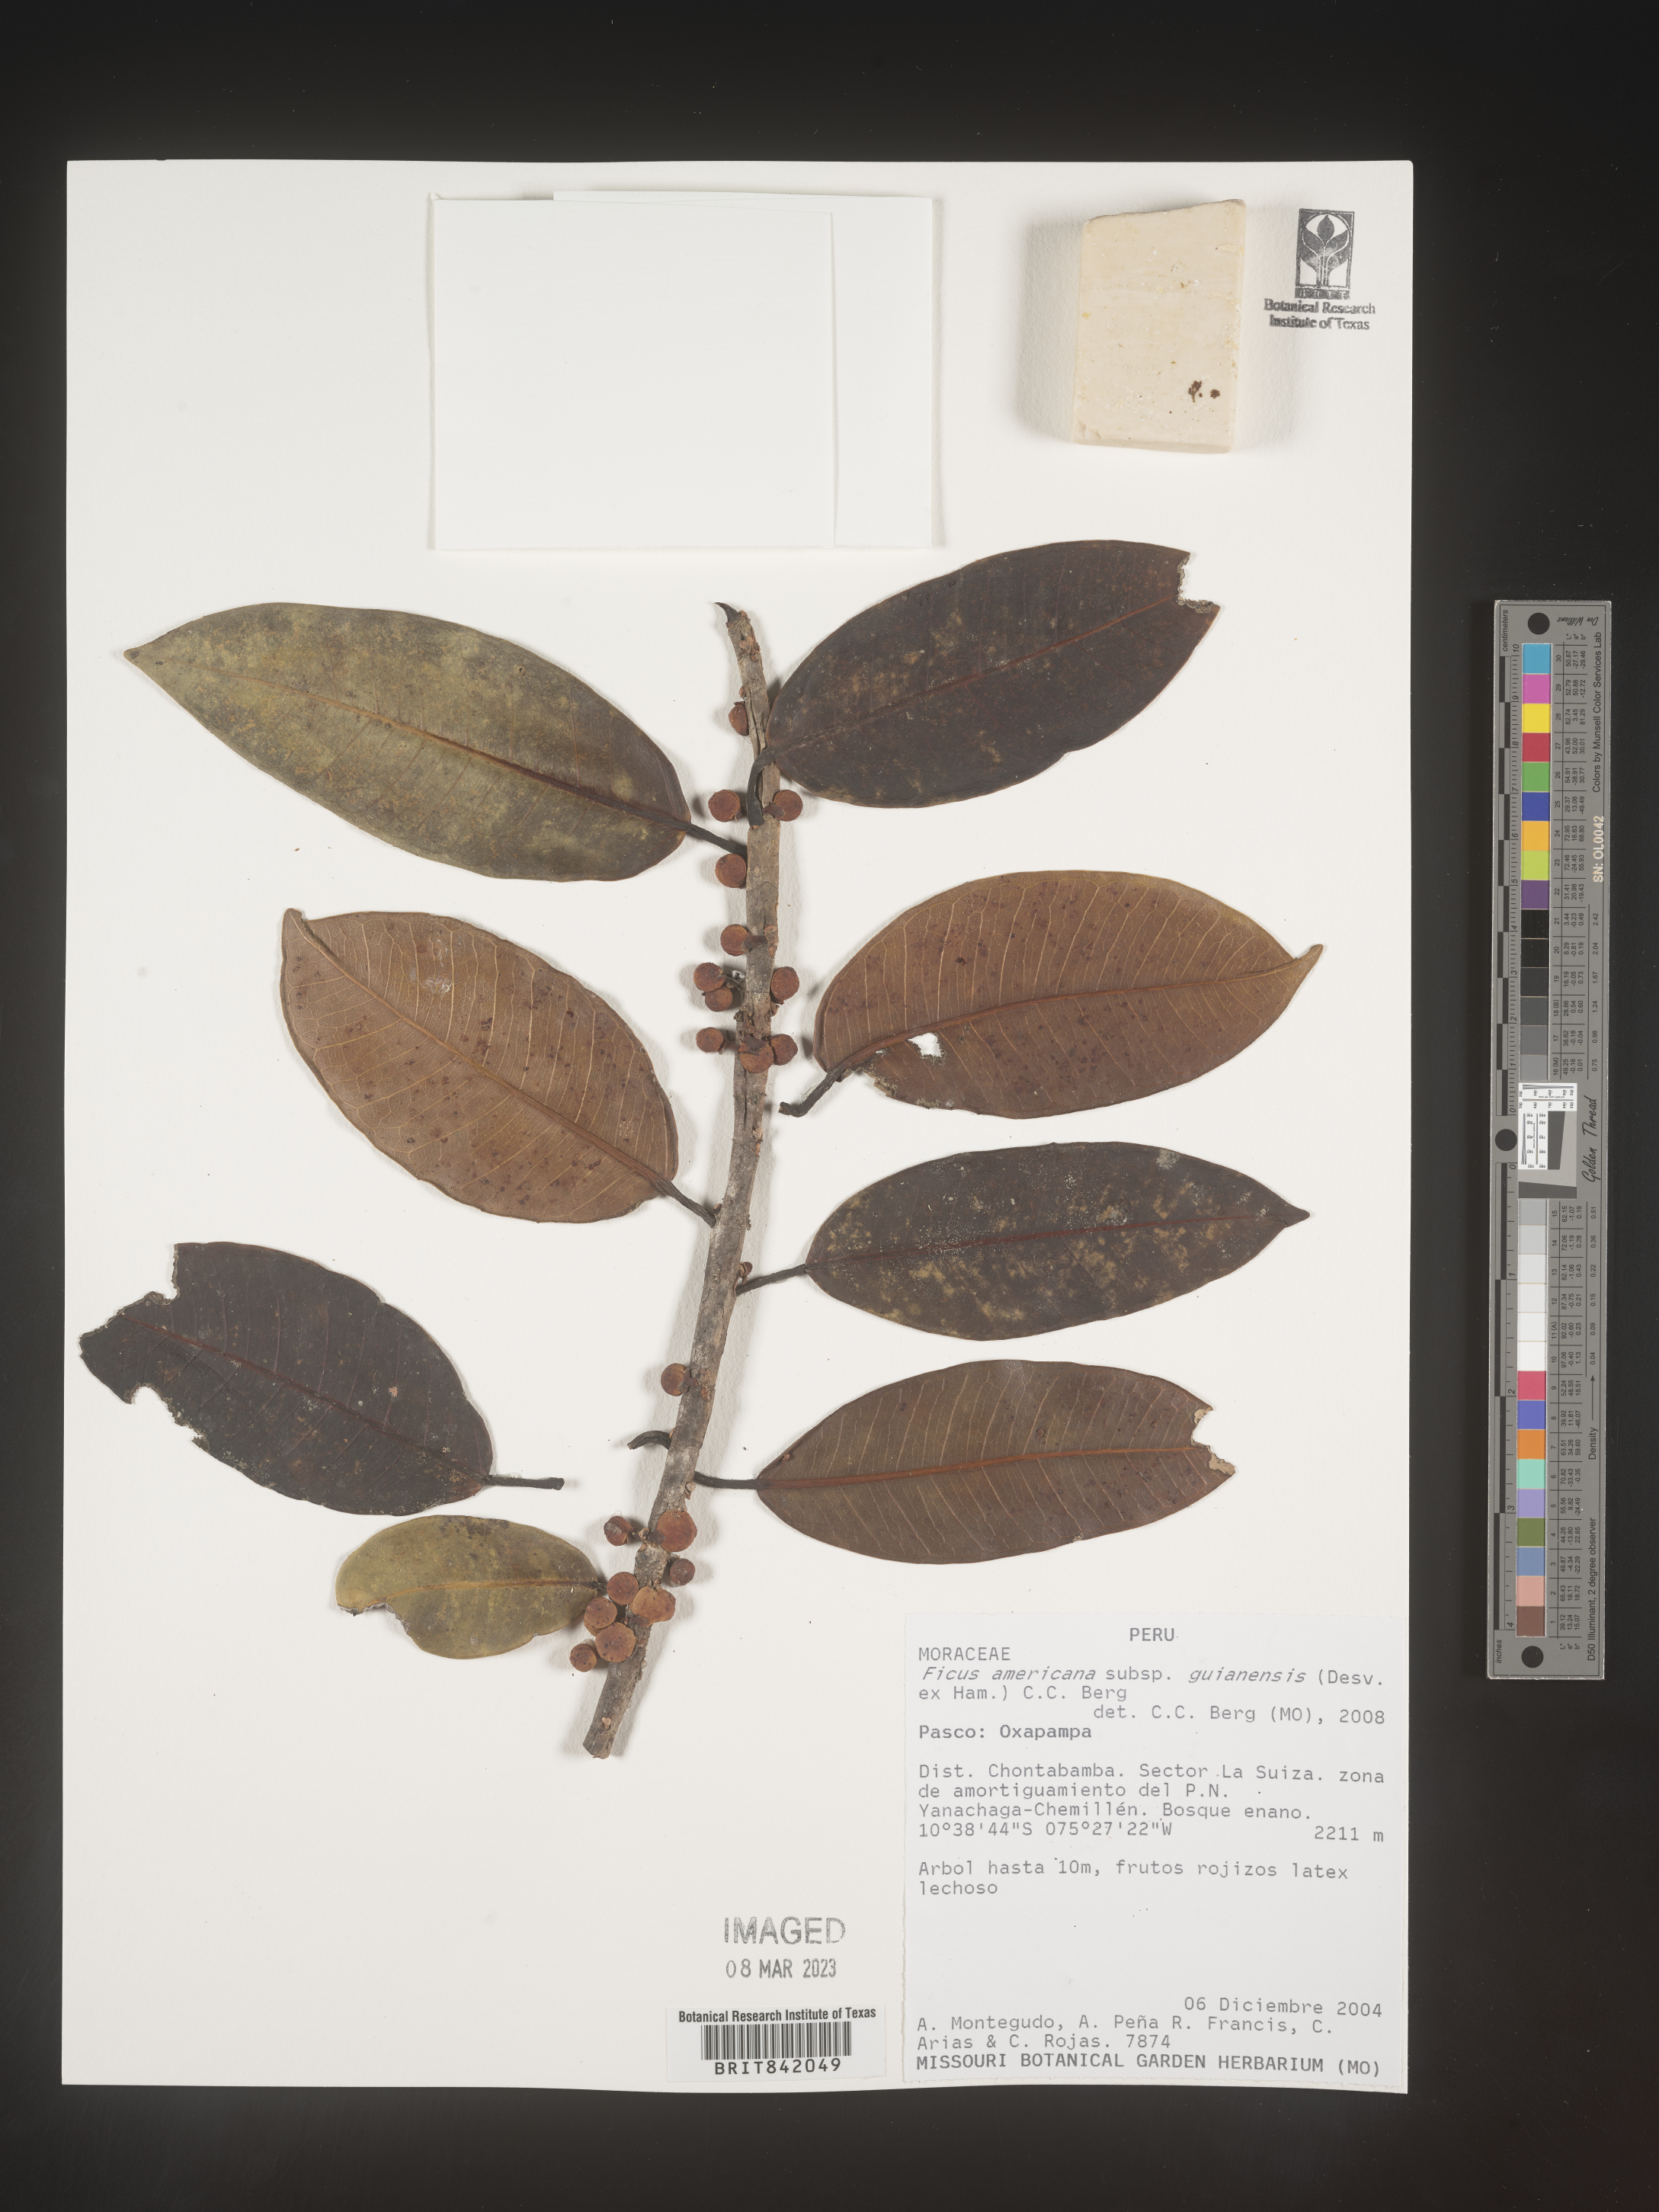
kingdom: Plantae
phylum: Tracheophyta
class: Magnoliopsida
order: Rosales
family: Moraceae
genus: Ficus
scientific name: Ficus americana
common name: Jamaican cherry fig
